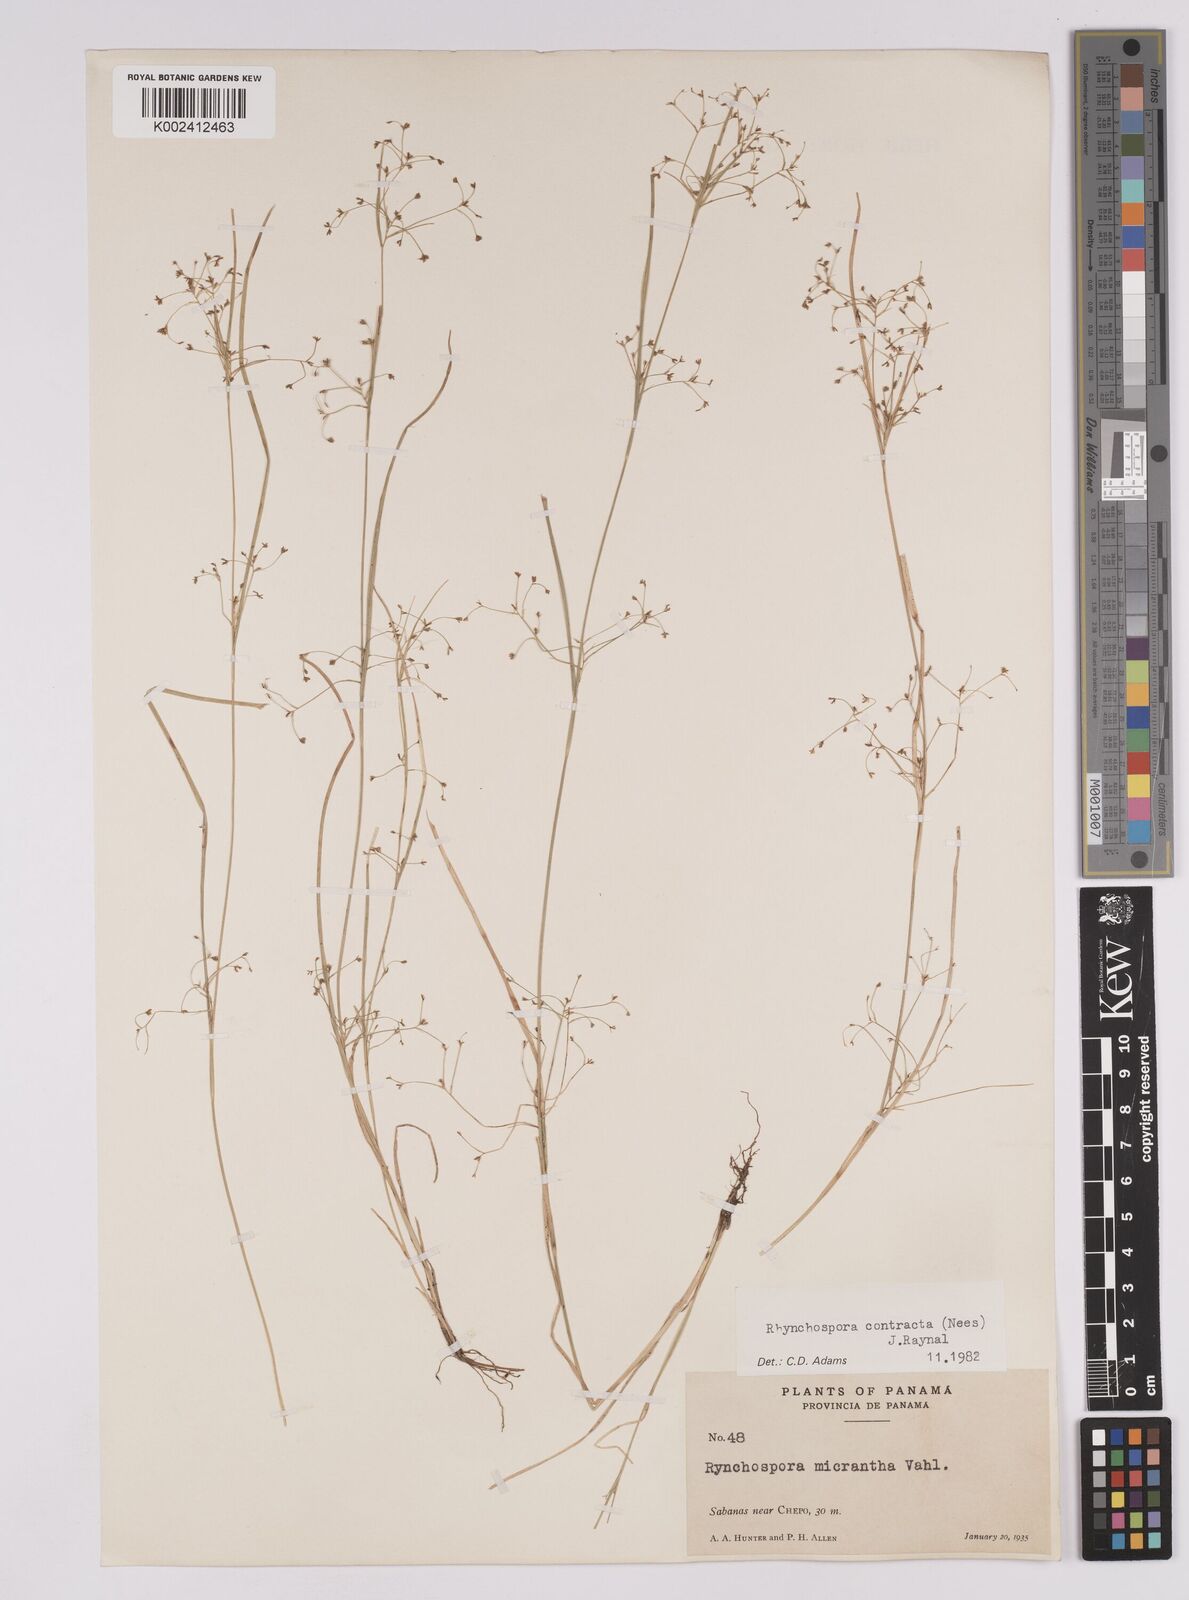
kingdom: Plantae
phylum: Tracheophyta
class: Liliopsida
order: Poales
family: Cyperaceae
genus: Rhynchospora
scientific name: Rhynchospora contracta
